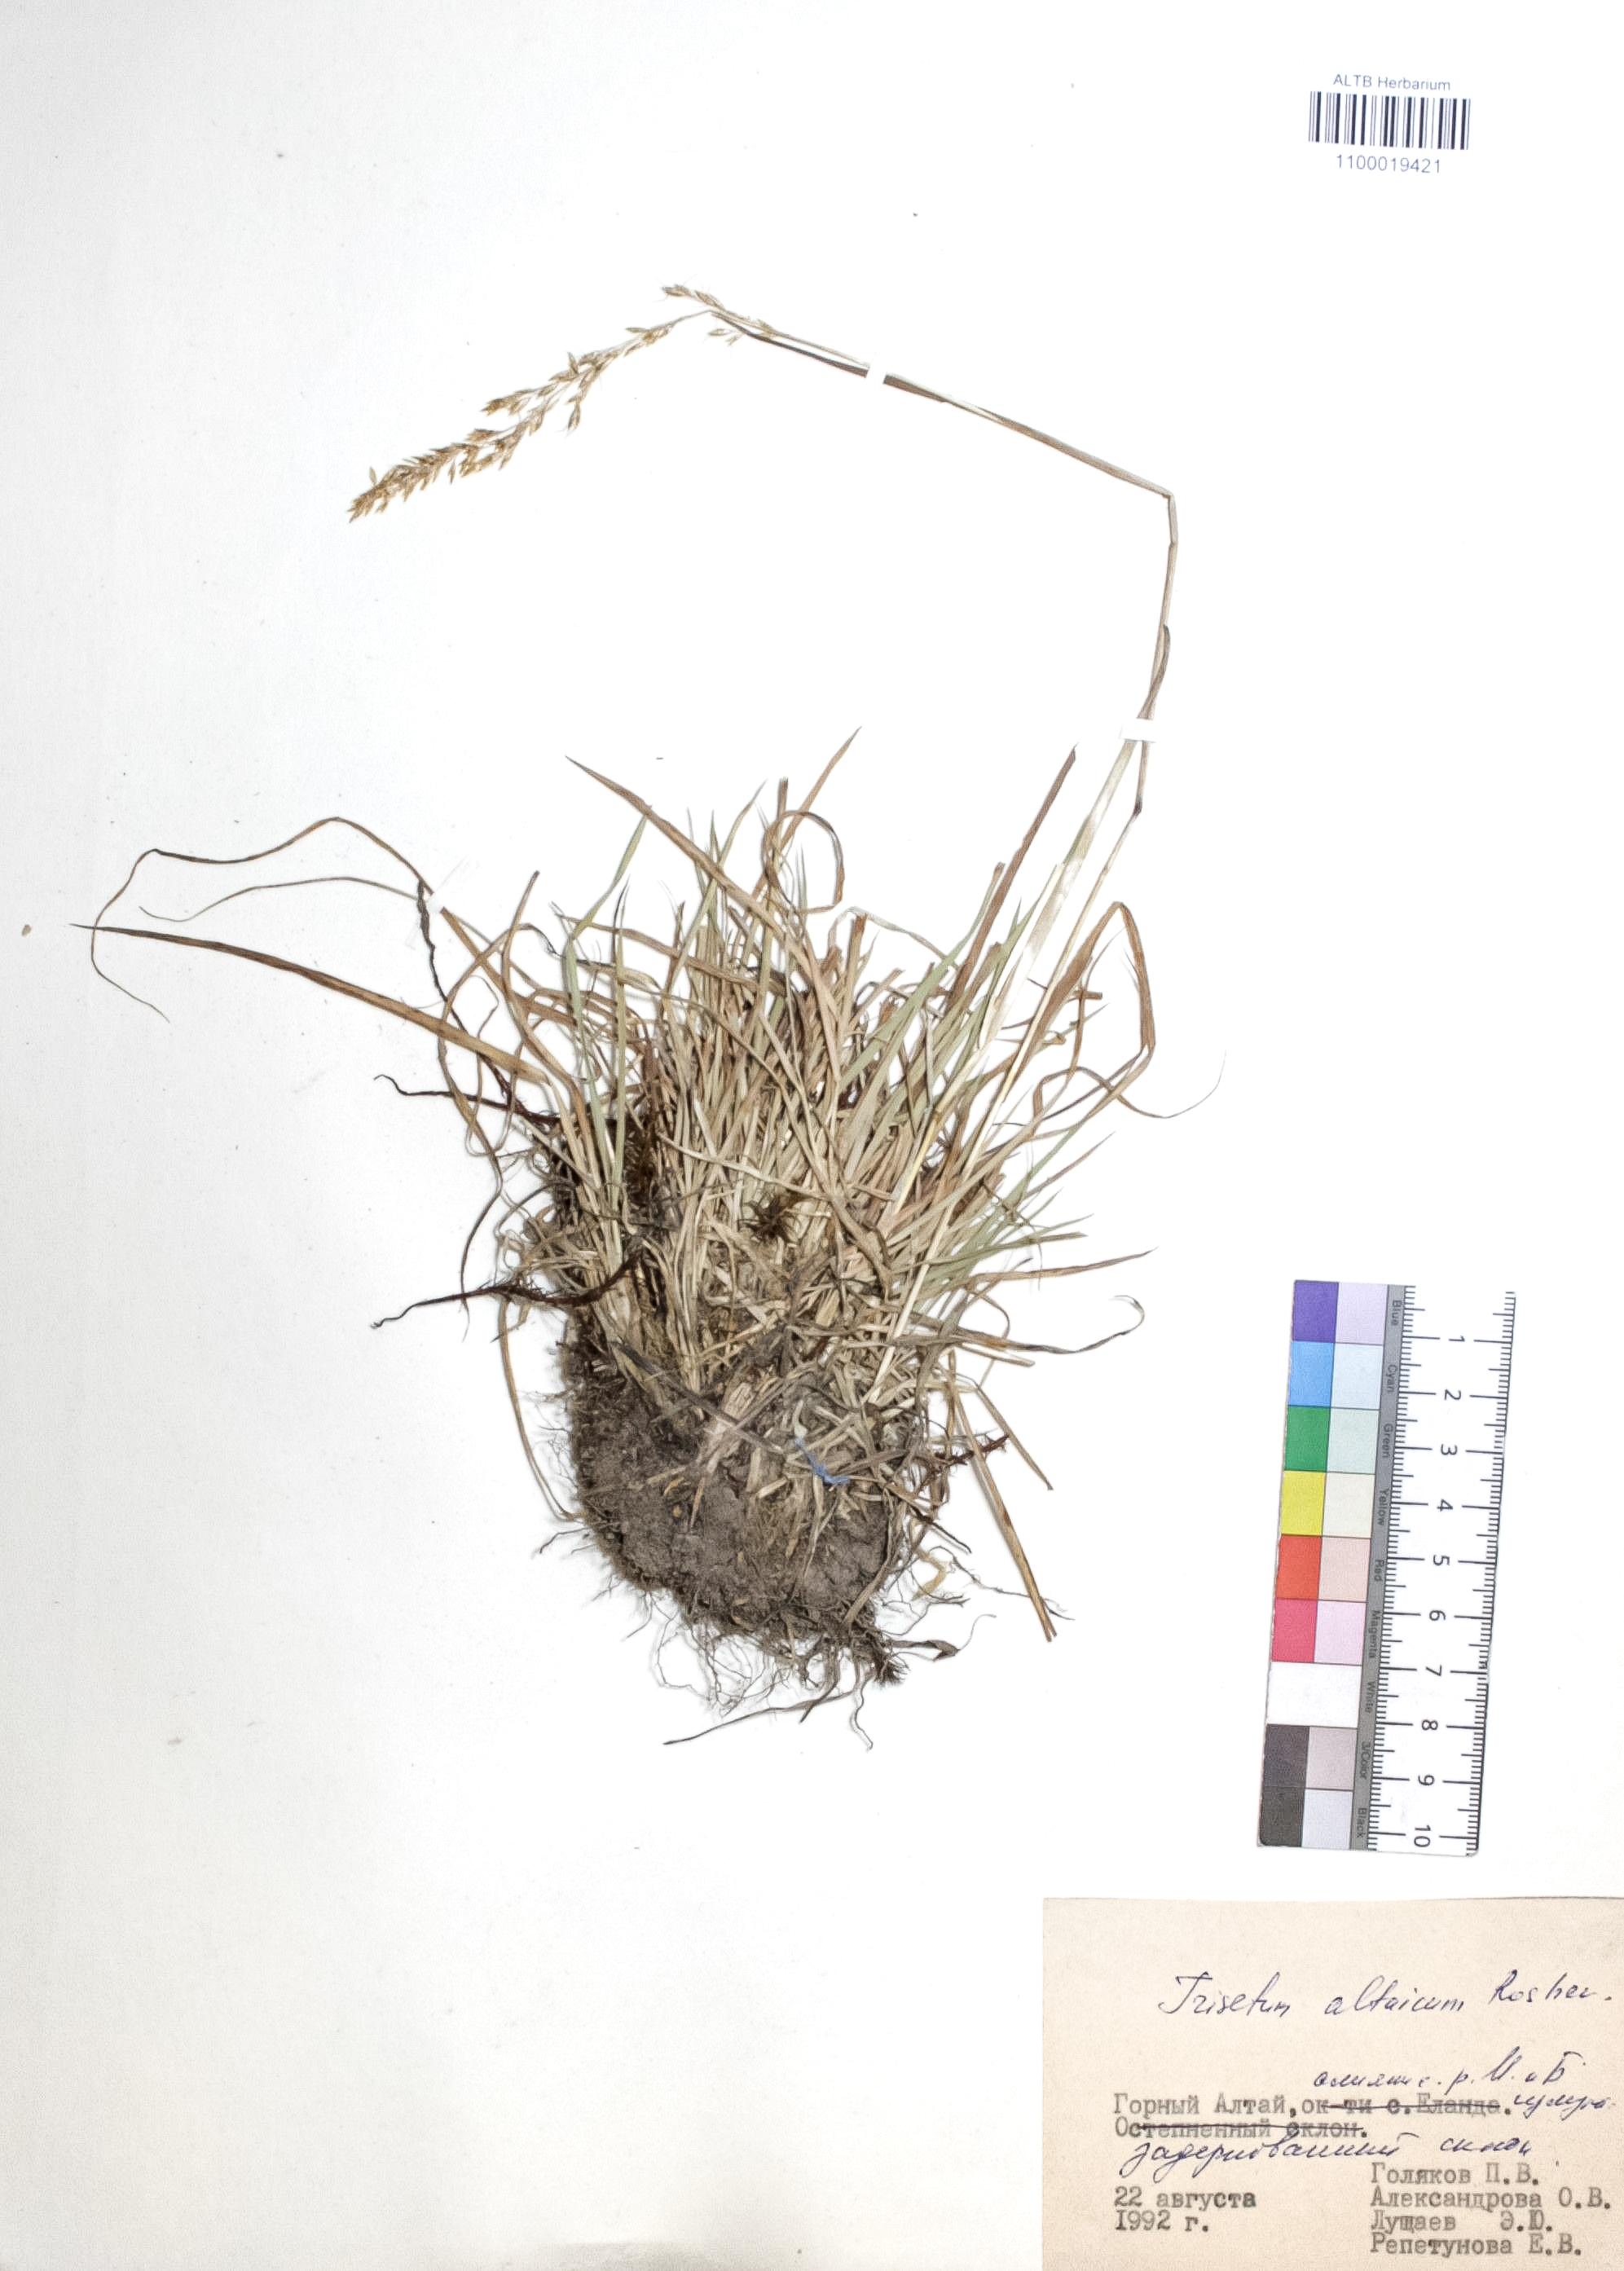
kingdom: Plantae
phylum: Tracheophyta
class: Liliopsida
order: Poales
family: Poaceae
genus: Trisetum
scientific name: Trisetum altaicum
